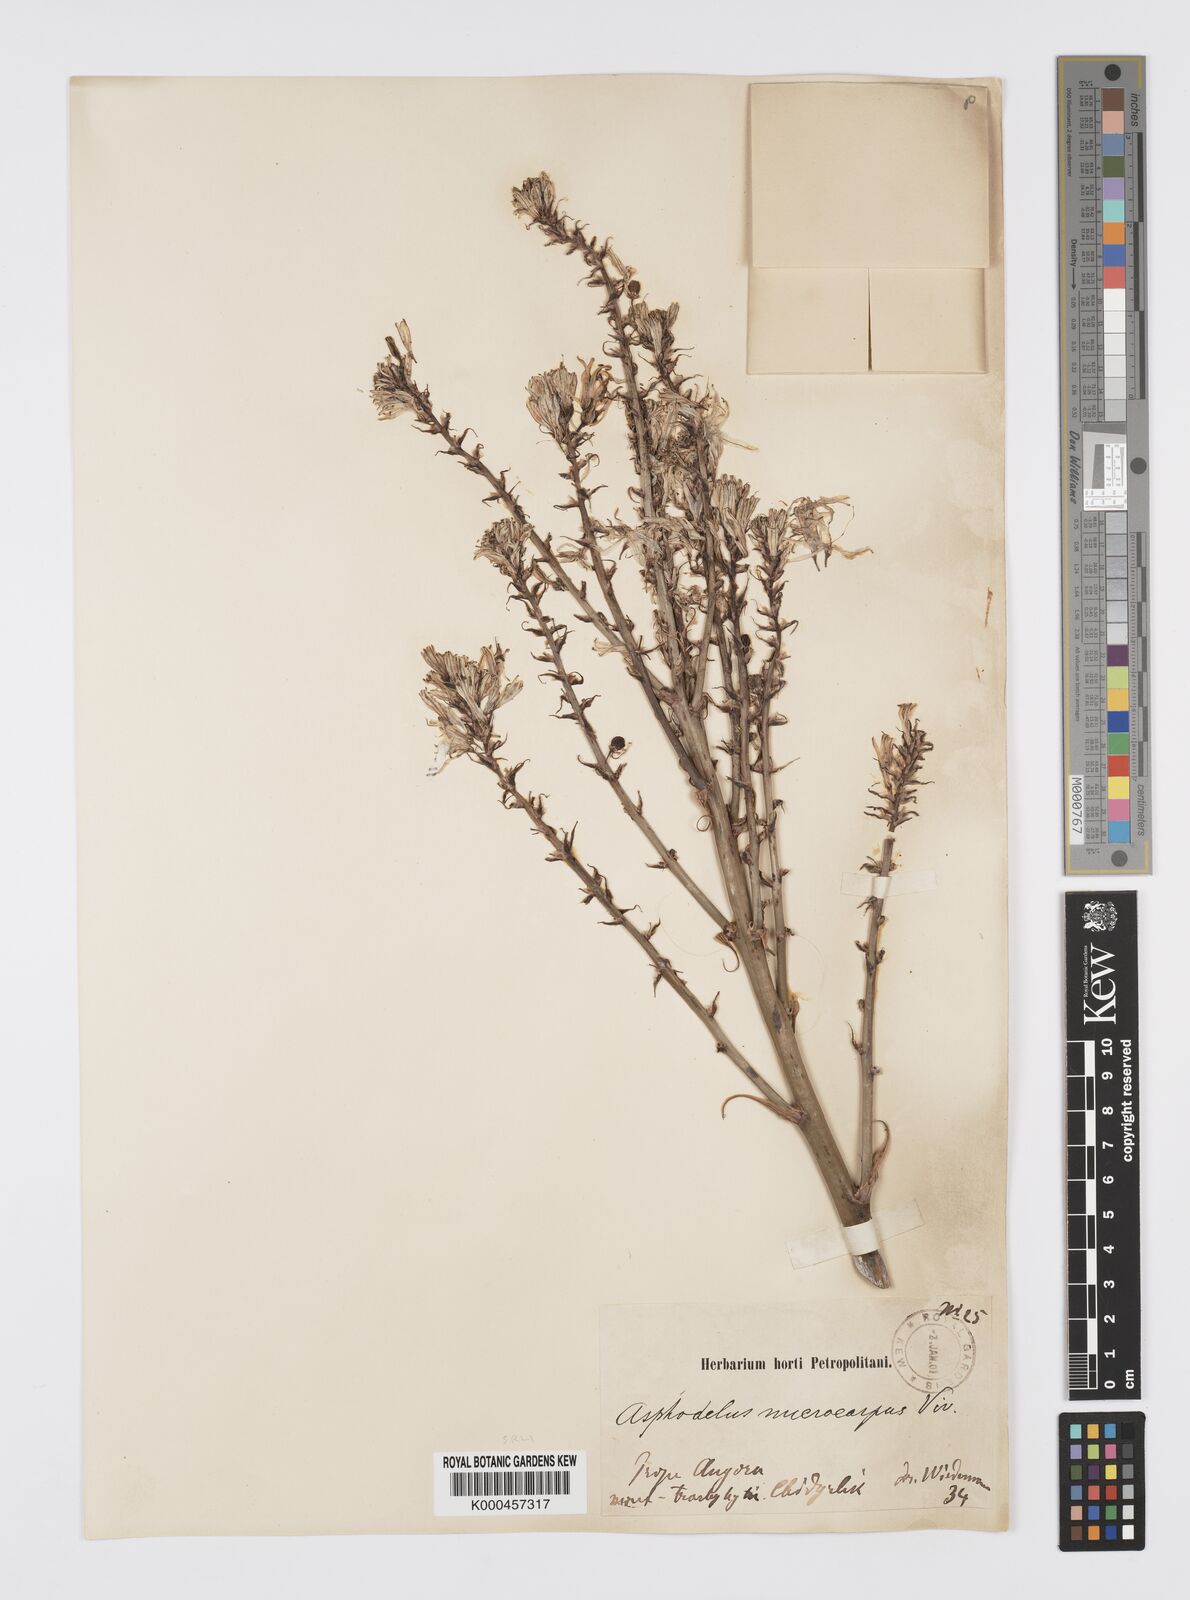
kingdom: Plantae
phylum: Tracheophyta
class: Liliopsida
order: Asparagales
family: Asphodelaceae
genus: Asphodelus
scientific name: Asphodelus aestivus
